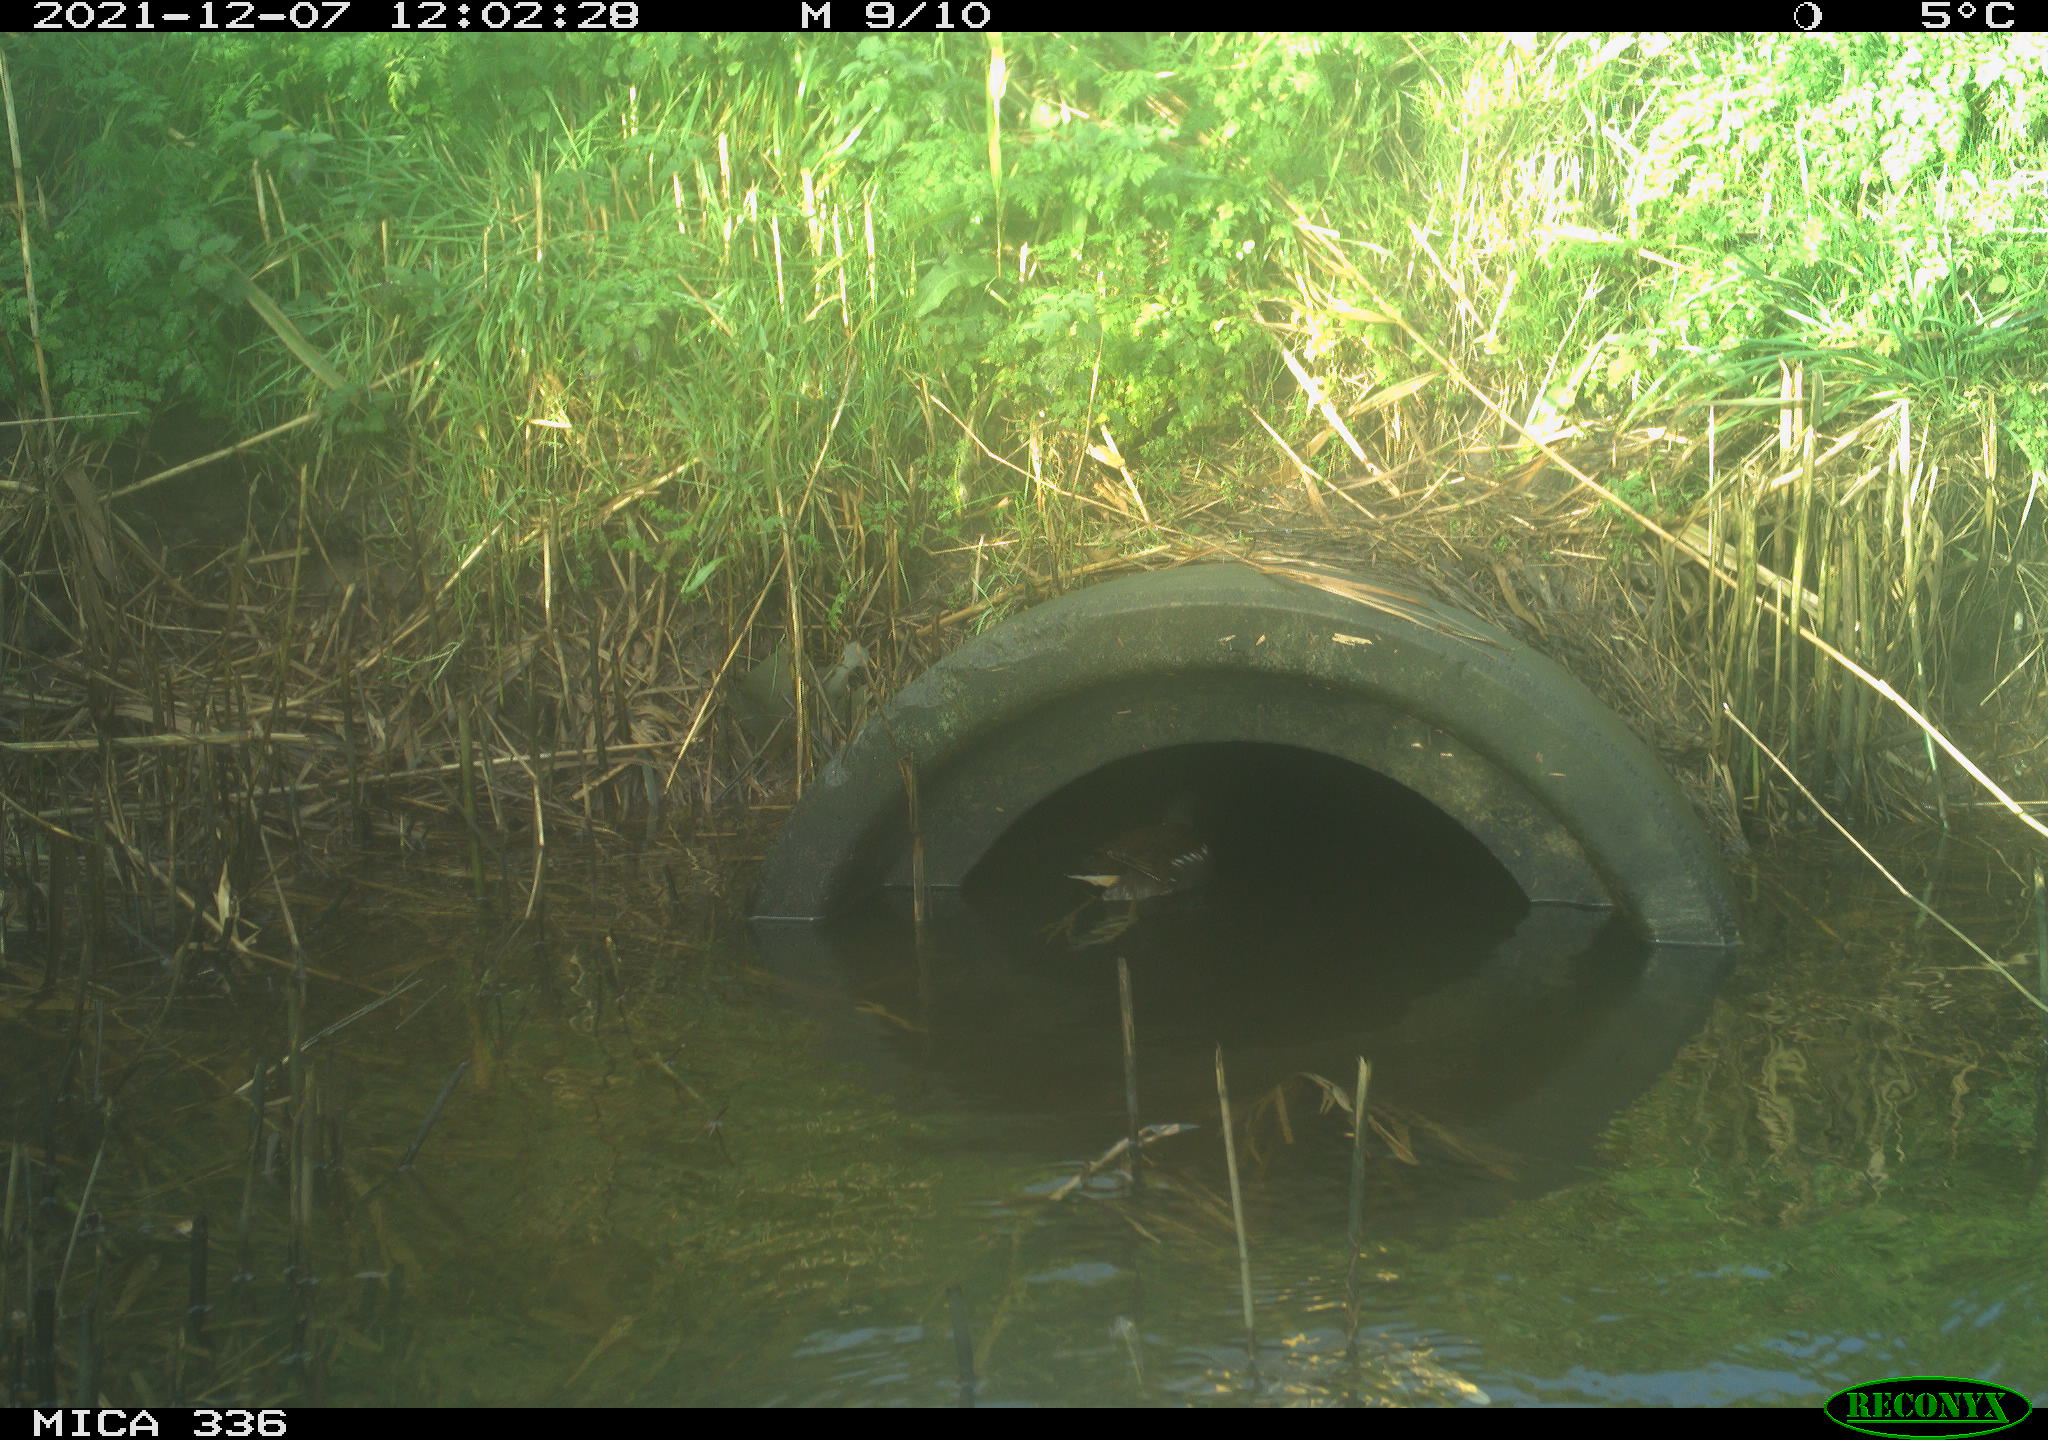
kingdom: Animalia
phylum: Chordata
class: Aves
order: Gruiformes
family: Rallidae
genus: Gallinula
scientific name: Gallinula chloropus
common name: Common moorhen
